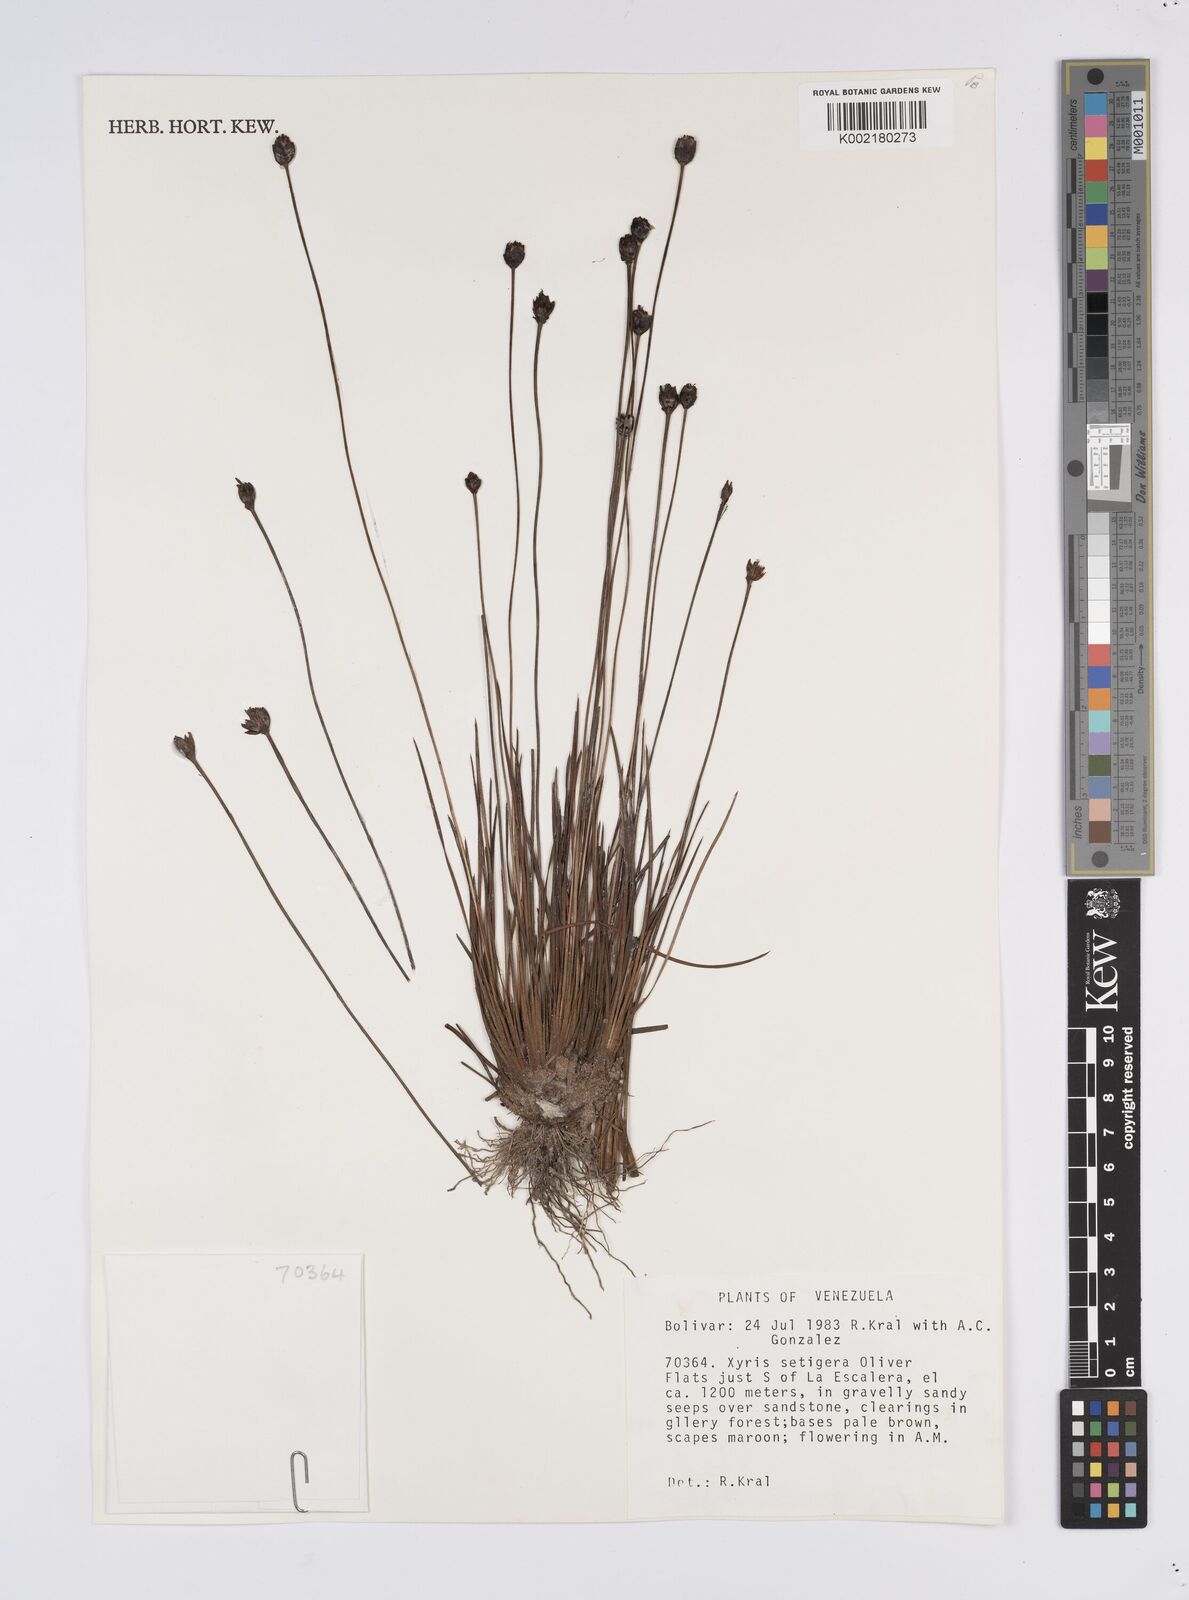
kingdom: Plantae
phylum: Tracheophyta
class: Liliopsida
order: Poales
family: Xyridaceae
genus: Xyris
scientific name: Xyris setigera
